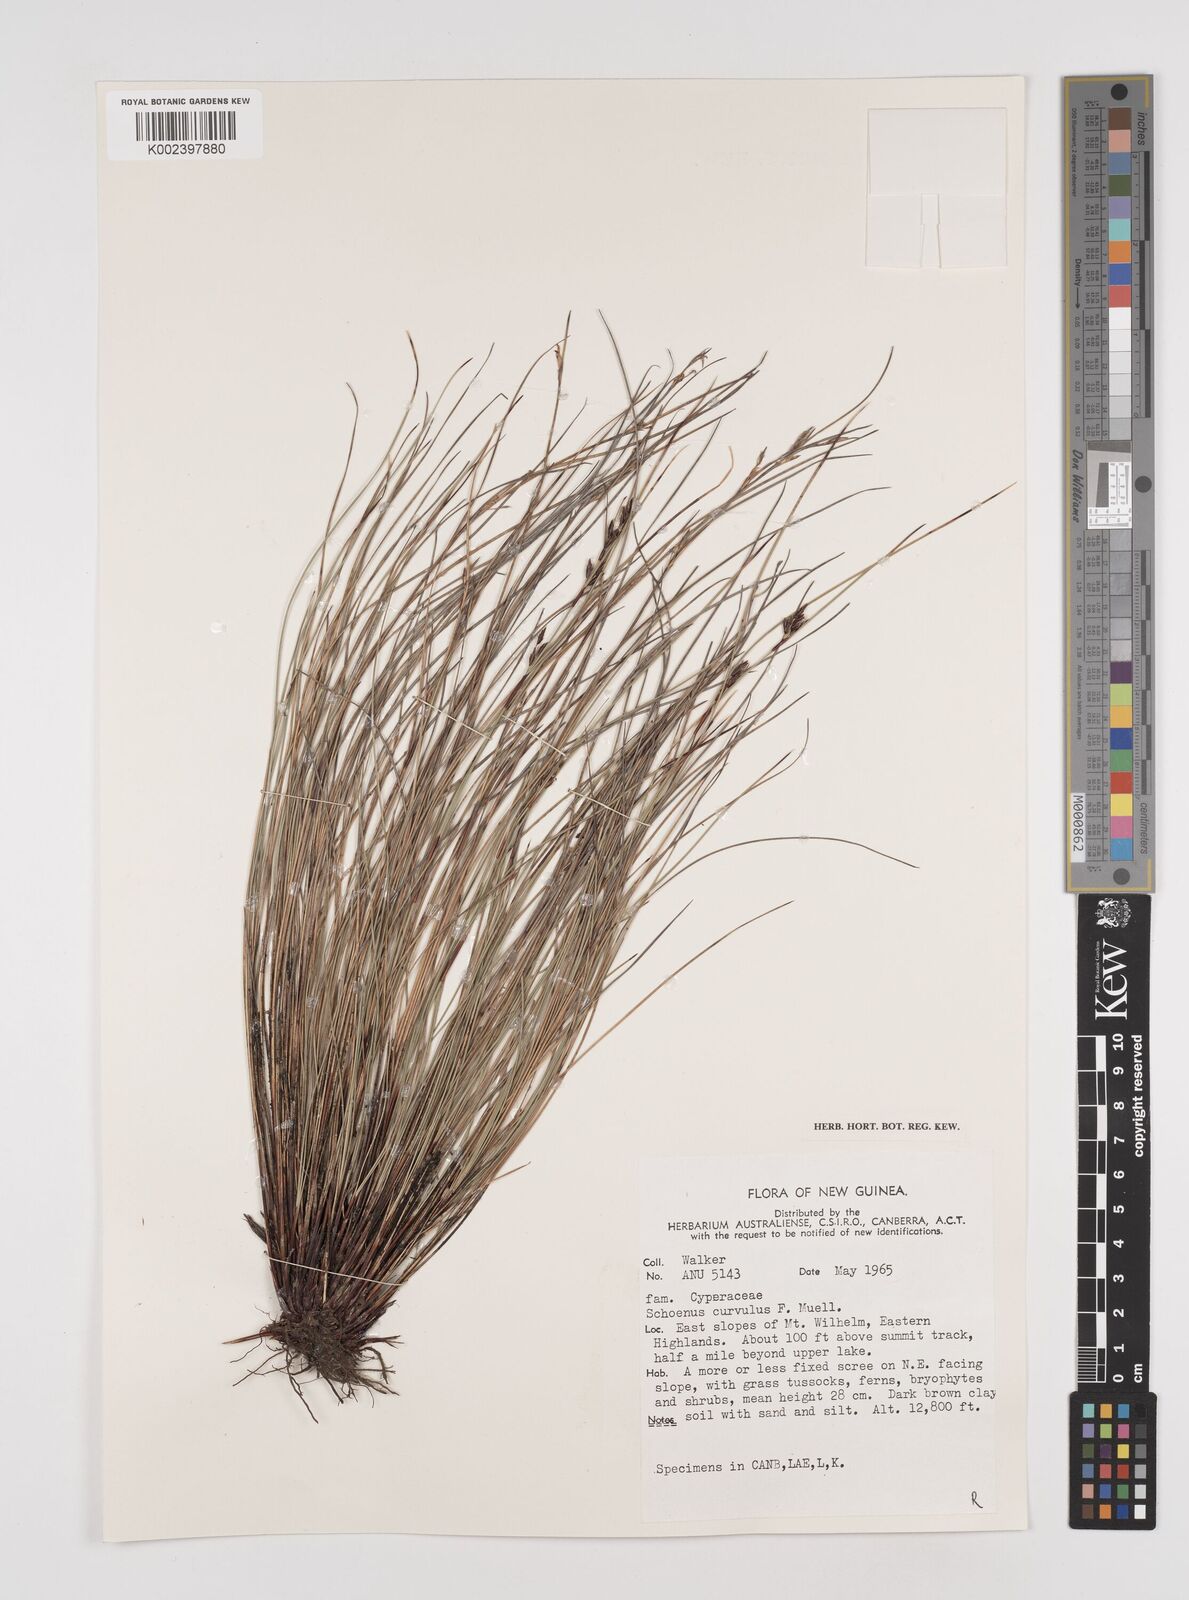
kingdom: Plantae
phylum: Tracheophyta
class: Liliopsida
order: Poales
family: Cyperaceae
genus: Schoenus
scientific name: Schoenus curvulus
